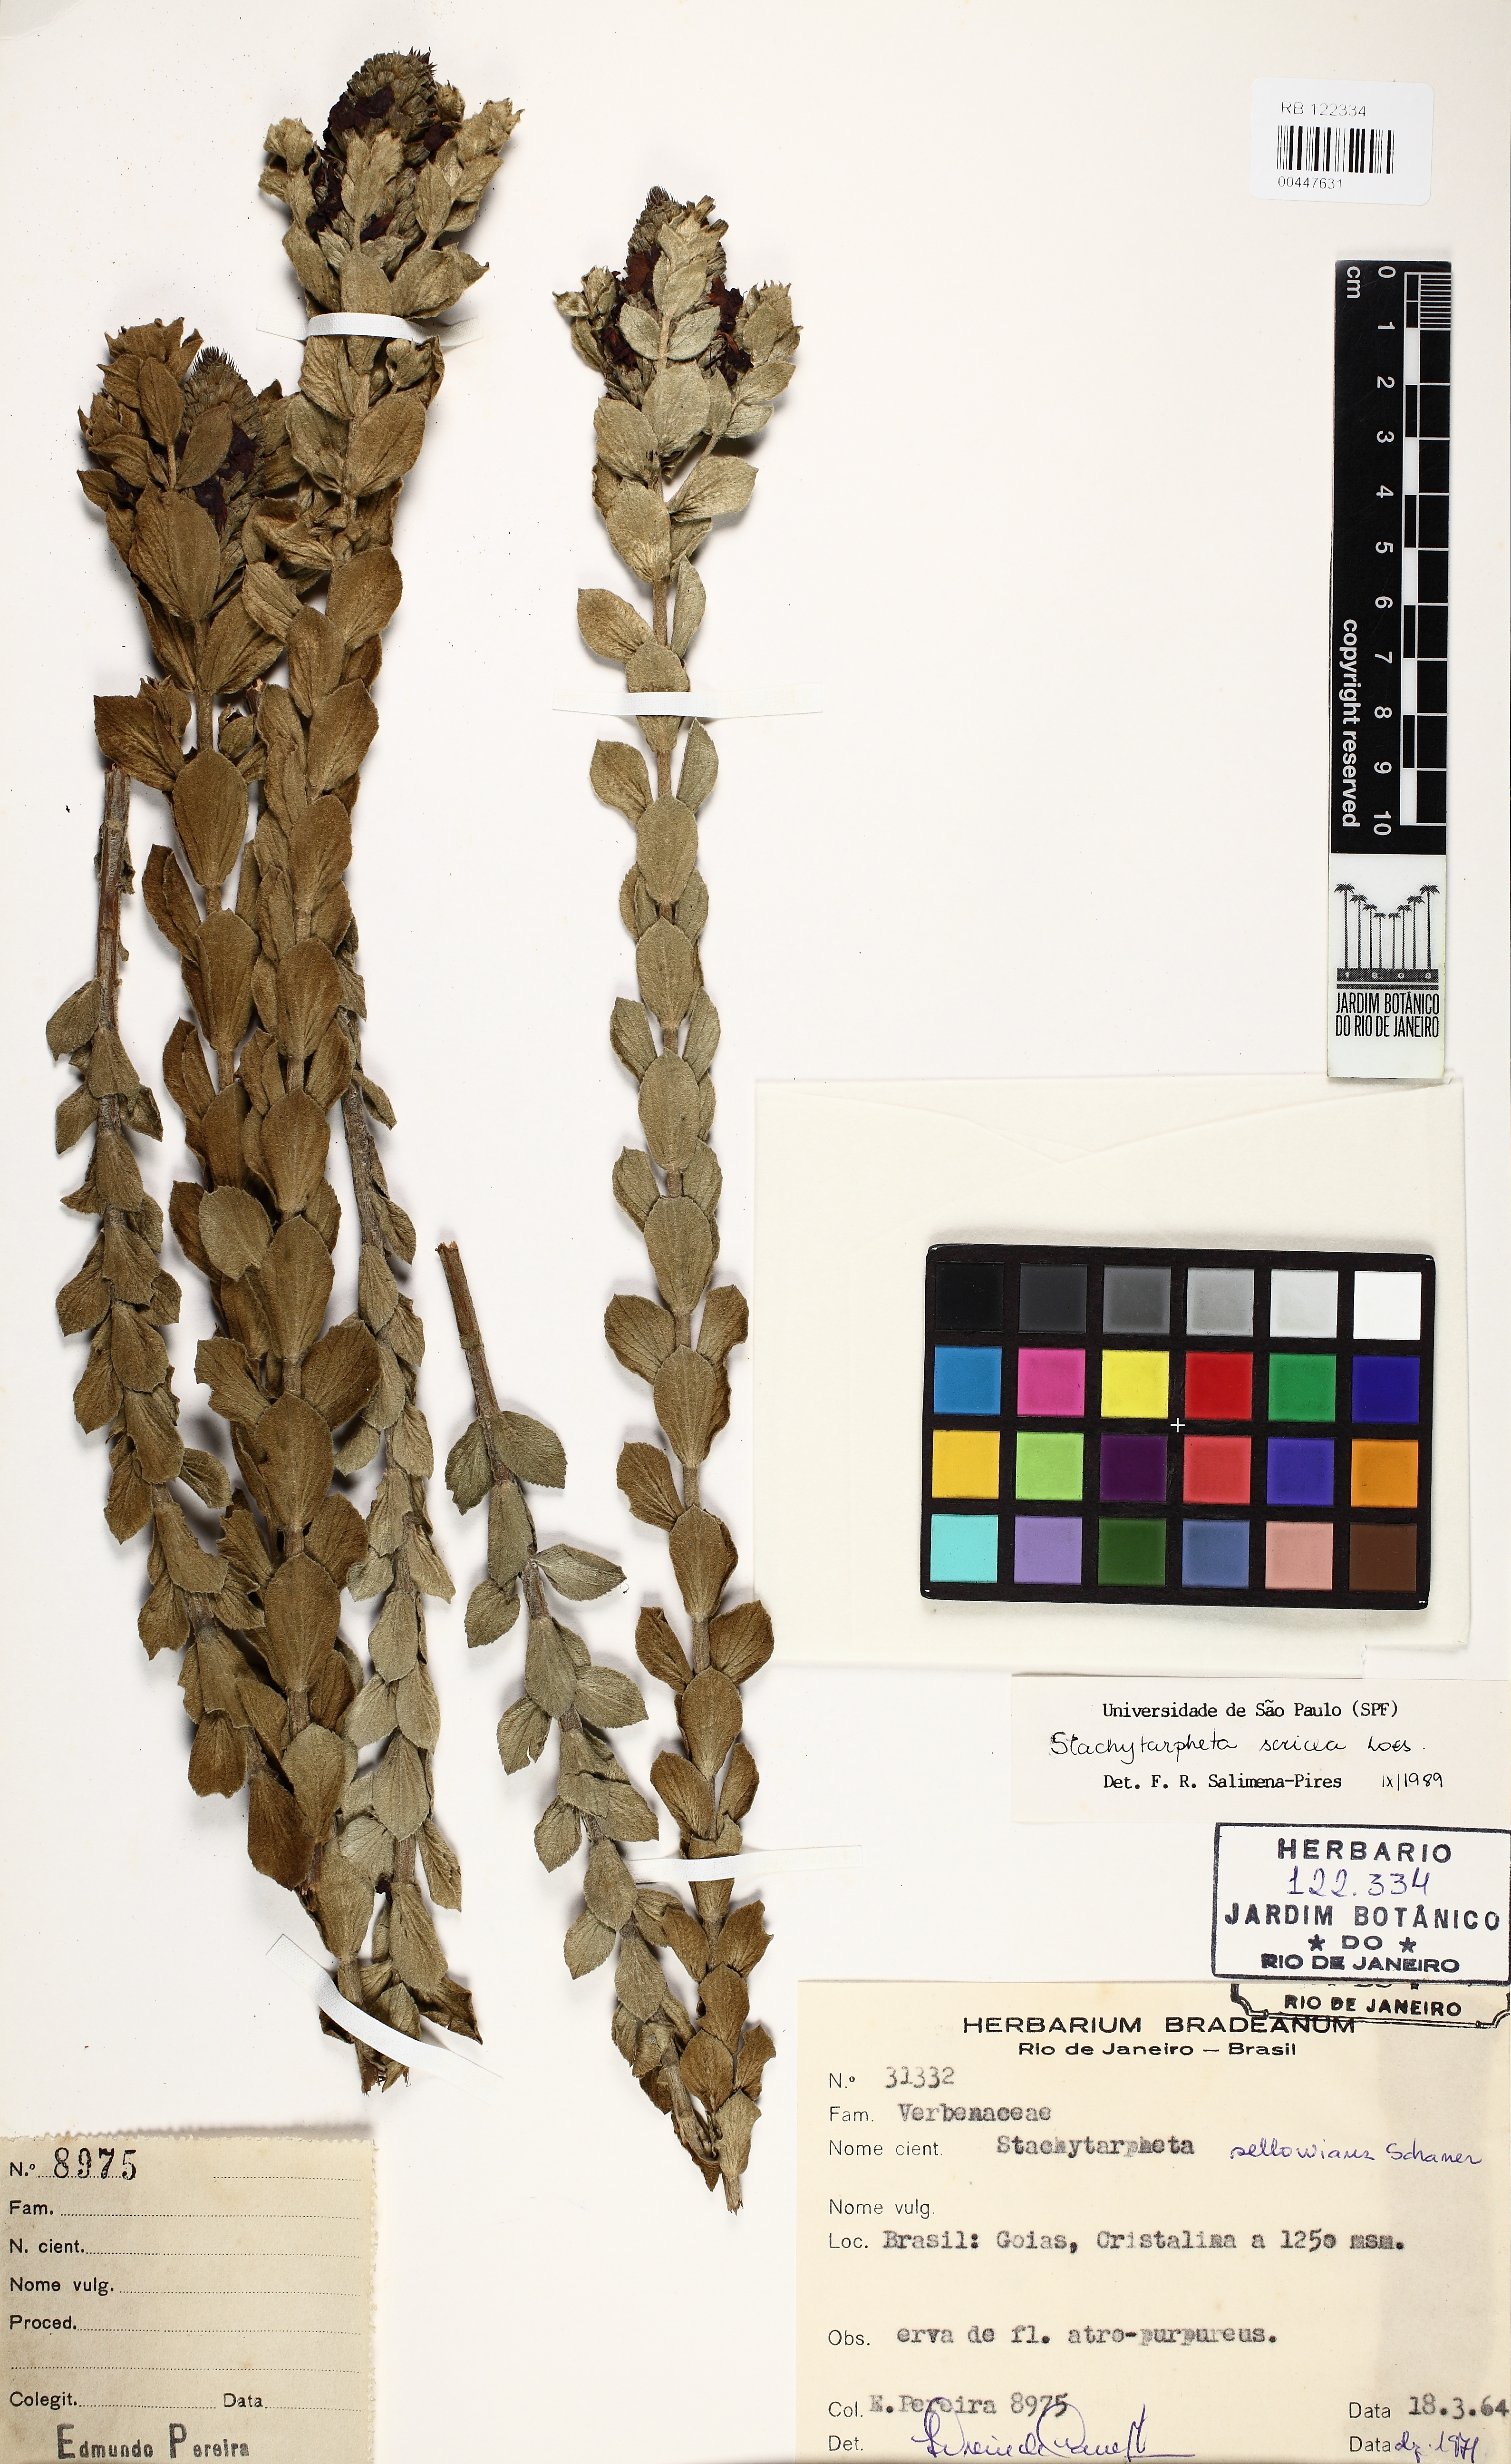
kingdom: Plantae
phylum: Tracheophyta
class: Magnoliopsida
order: Lamiales
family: Verbenaceae
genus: Stachytarpheta
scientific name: Stachytarpheta sericea
